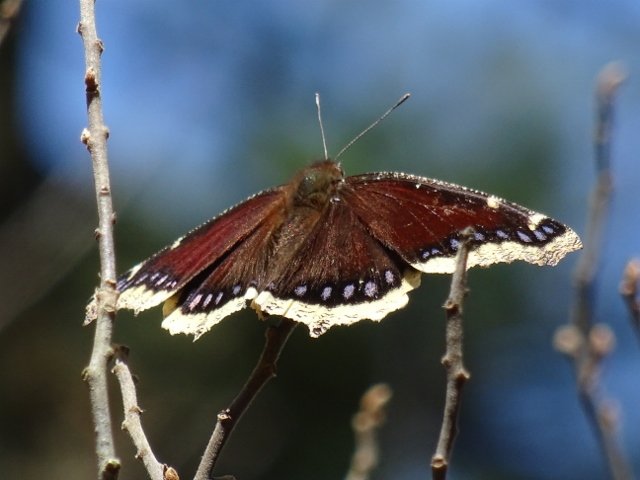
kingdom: Animalia
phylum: Arthropoda
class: Insecta
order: Lepidoptera
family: Nymphalidae
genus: Nymphalis
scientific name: Nymphalis antiopa
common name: Mourning Cloak
